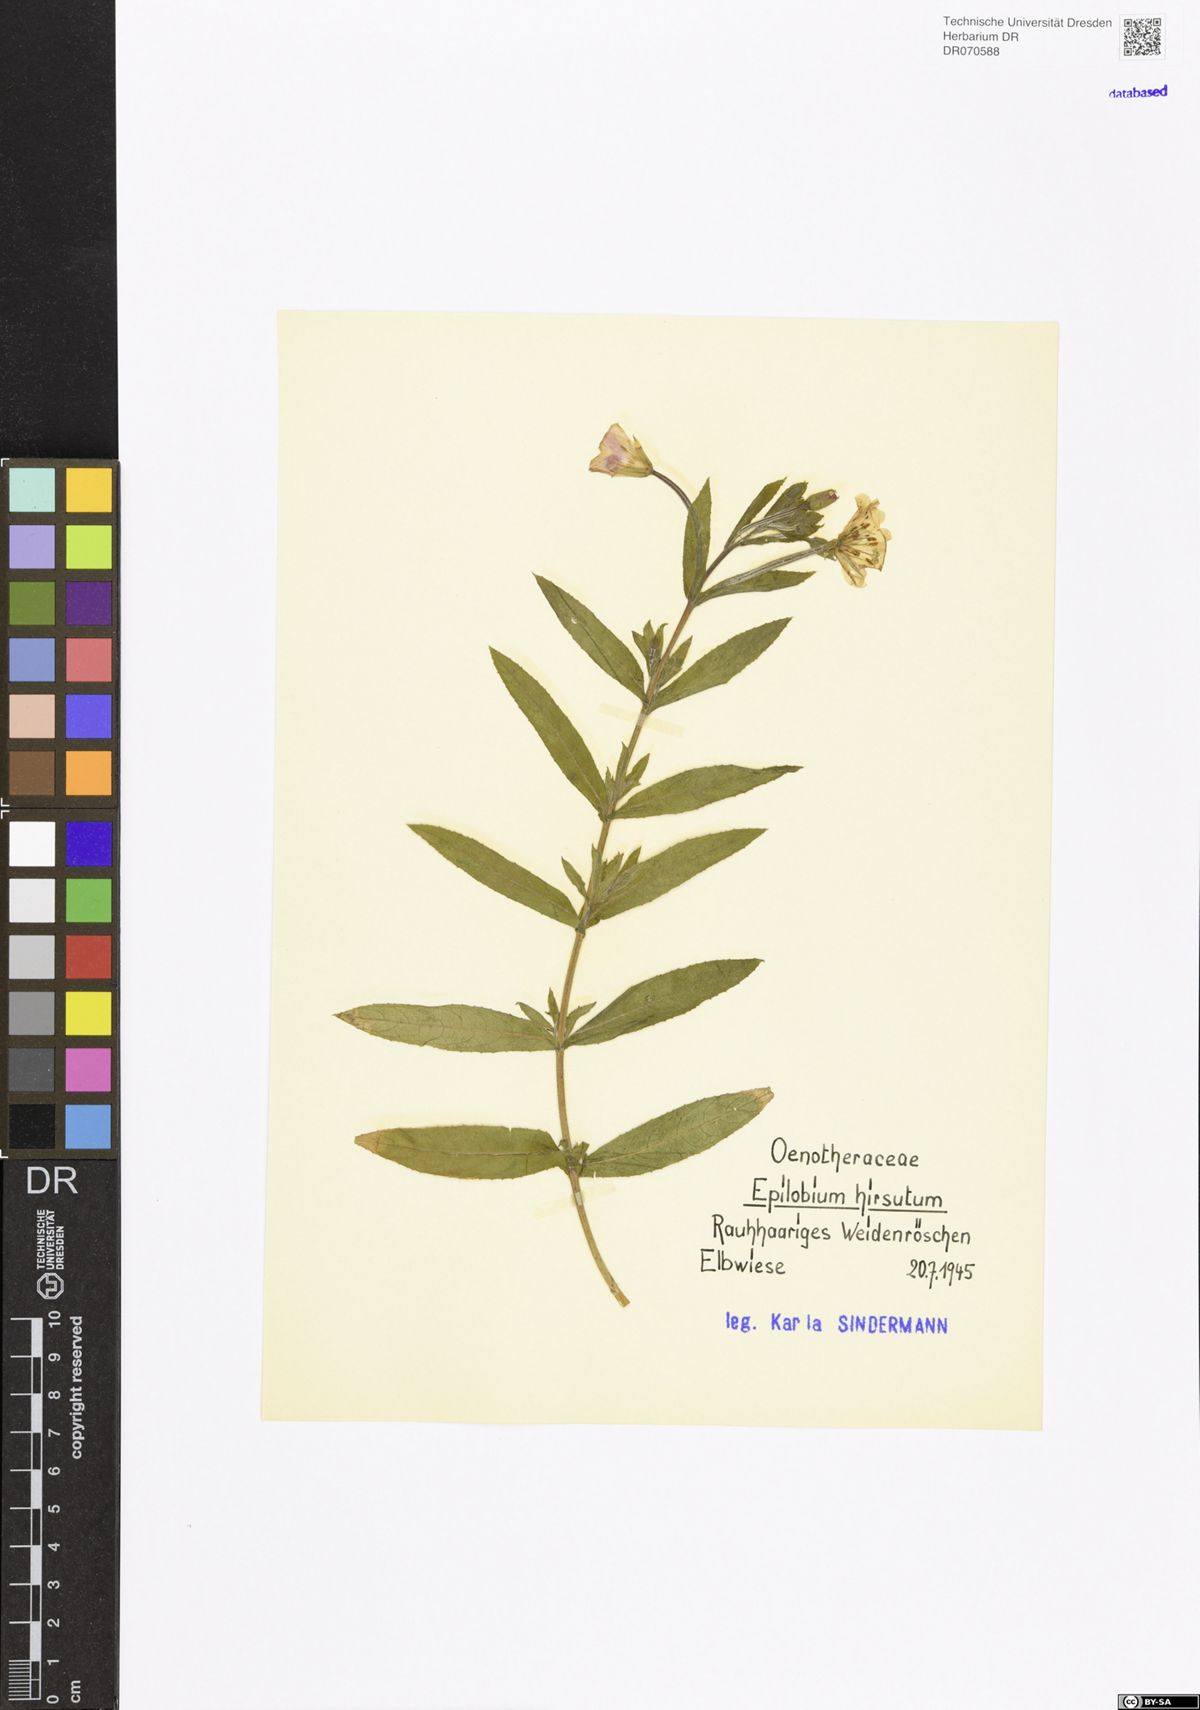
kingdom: Plantae
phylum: Tracheophyta
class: Magnoliopsida
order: Myrtales
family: Onagraceae
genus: Epilobium
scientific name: Epilobium hirsutum
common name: Great willowherb
